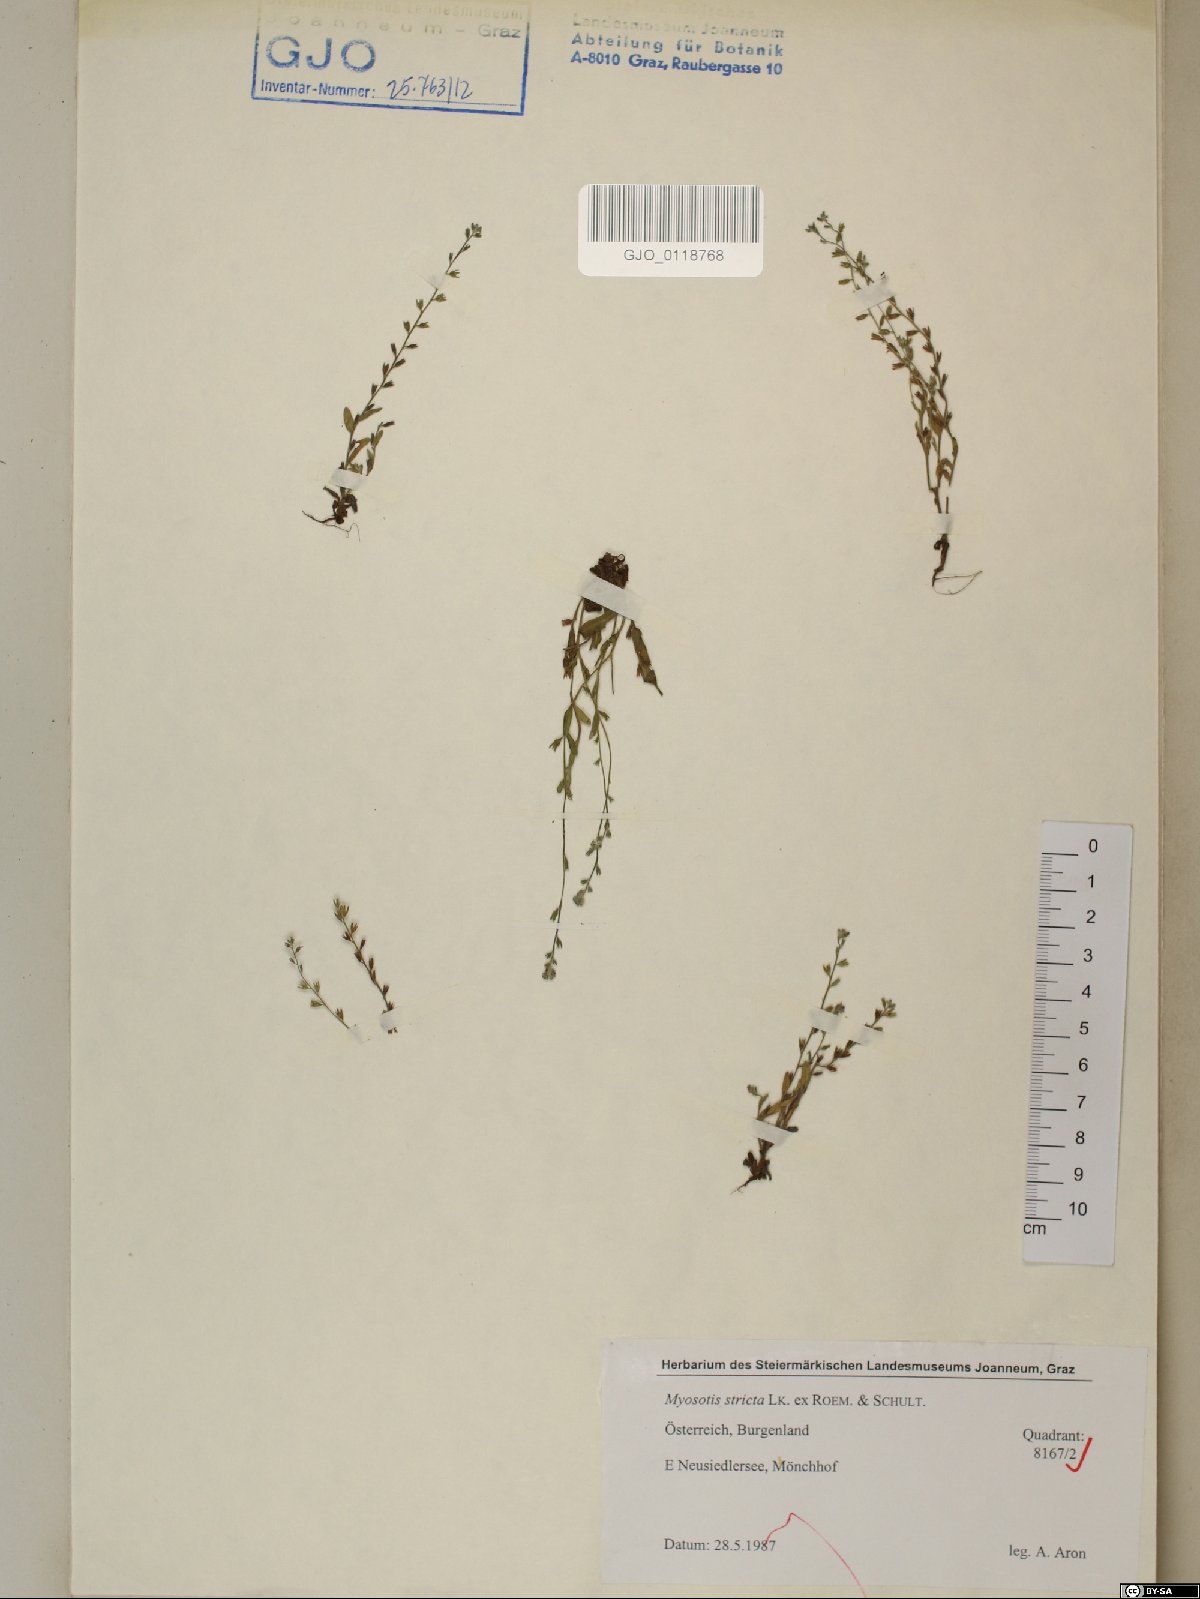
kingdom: Plantae
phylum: Tracheophyta
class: Magnoliopsida
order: Boraginales
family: Boraginaceae
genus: Myosotis
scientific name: Myosotis stricta
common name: Strict forget-me-not
